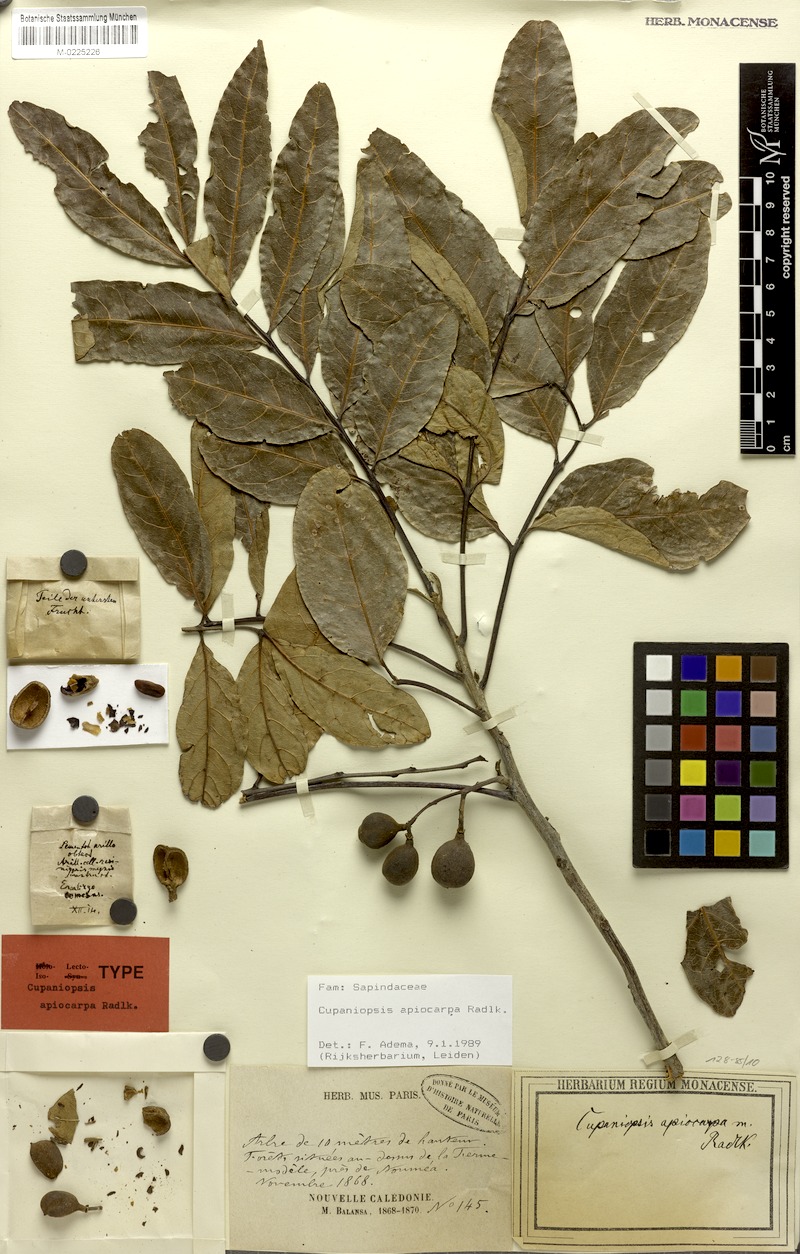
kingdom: Plantae
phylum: Tracheophyta
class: Magnoliopsida
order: Sapindales
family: Sapindaceae
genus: Cupaniopsis
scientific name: Cupaniopsis apiocarpa
